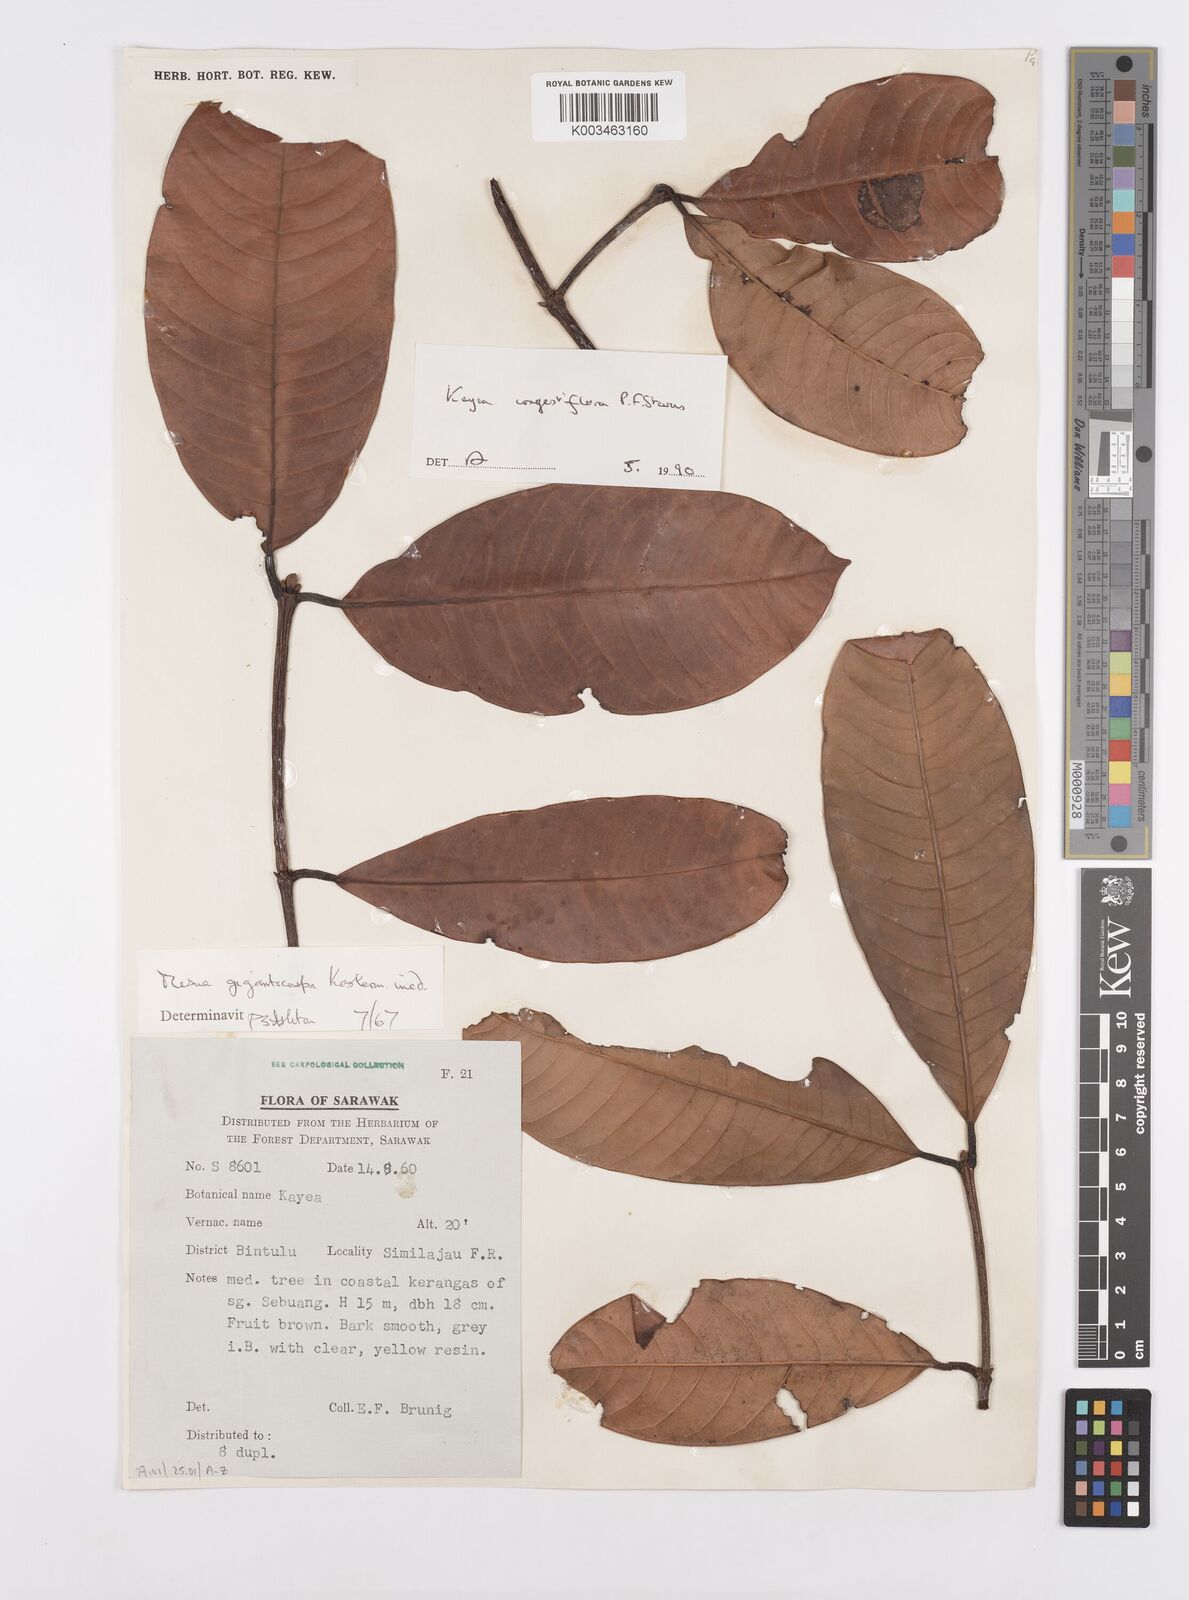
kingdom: Plantae
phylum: Tracheophyta
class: Magnoliopsida
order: Malpighiales
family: Calophyllaceae
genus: Kayea
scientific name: Kayea
